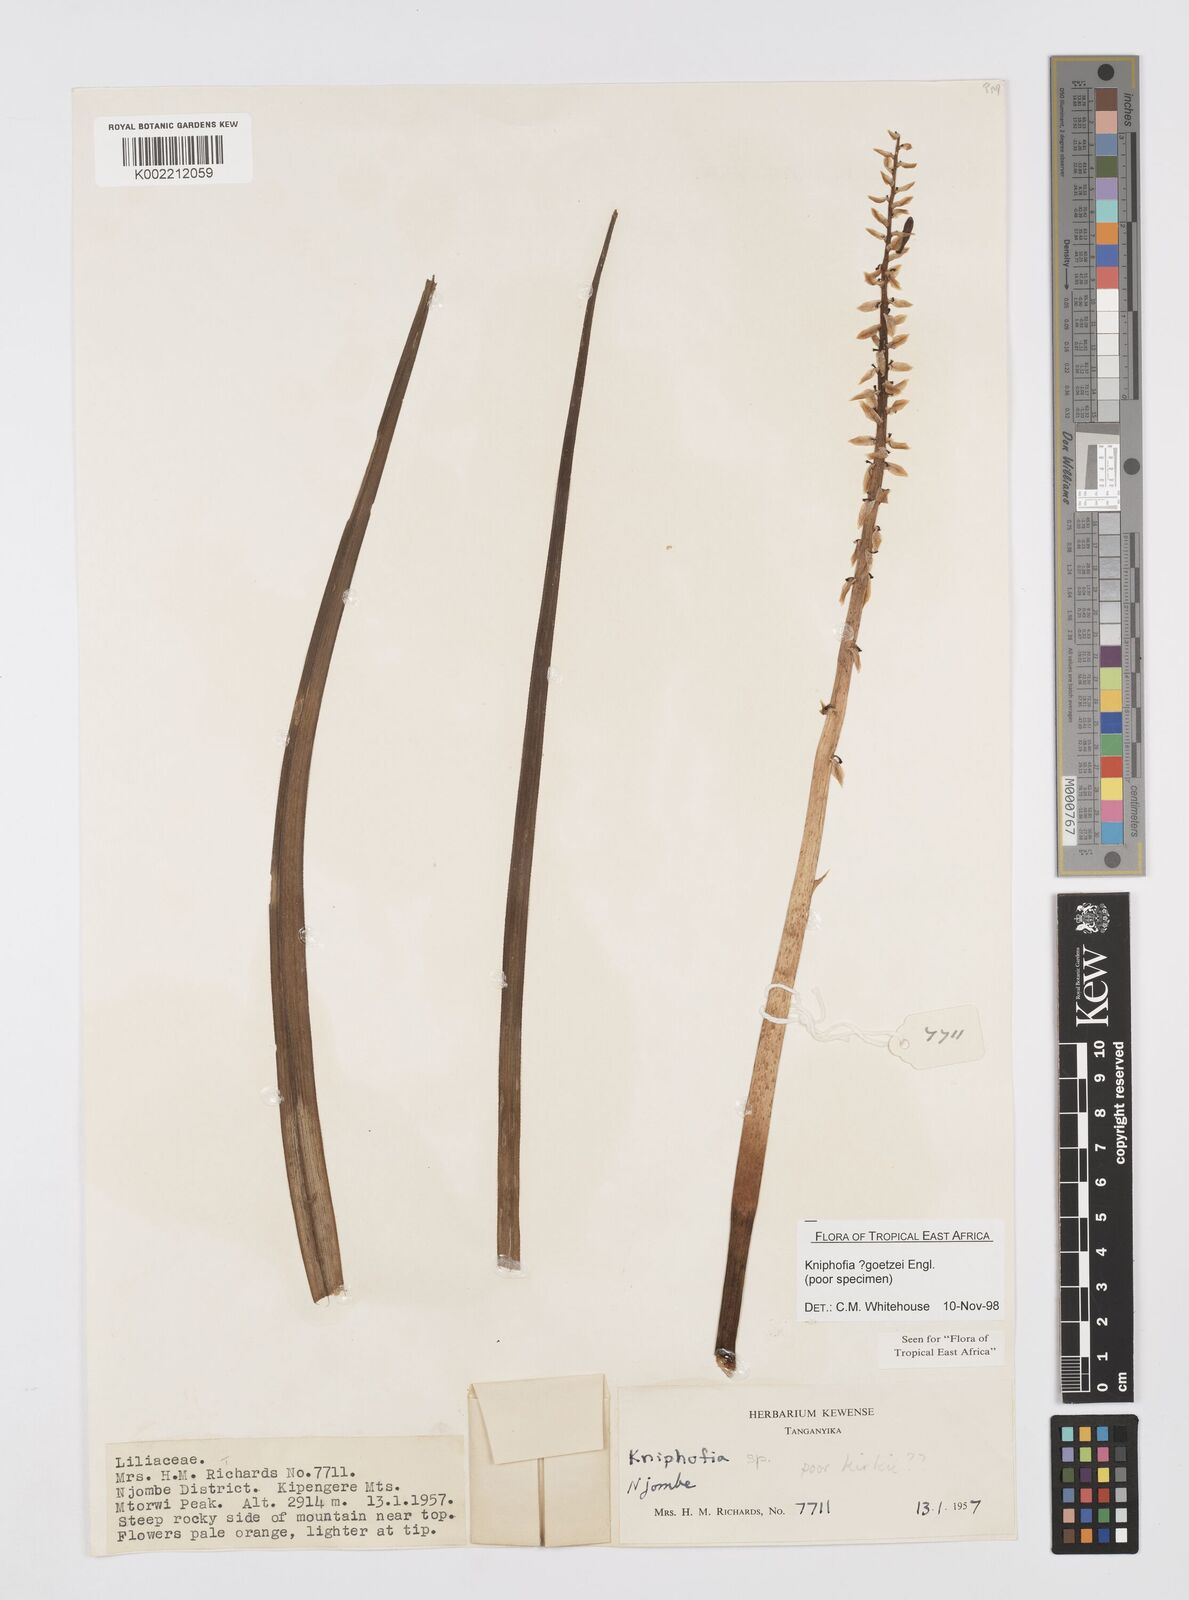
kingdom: Plantae
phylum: Tracheophyta
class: Liliopsida
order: Asparagales
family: Asphodelaceae
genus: Kniphofia
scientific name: Kniphofia goetzei
